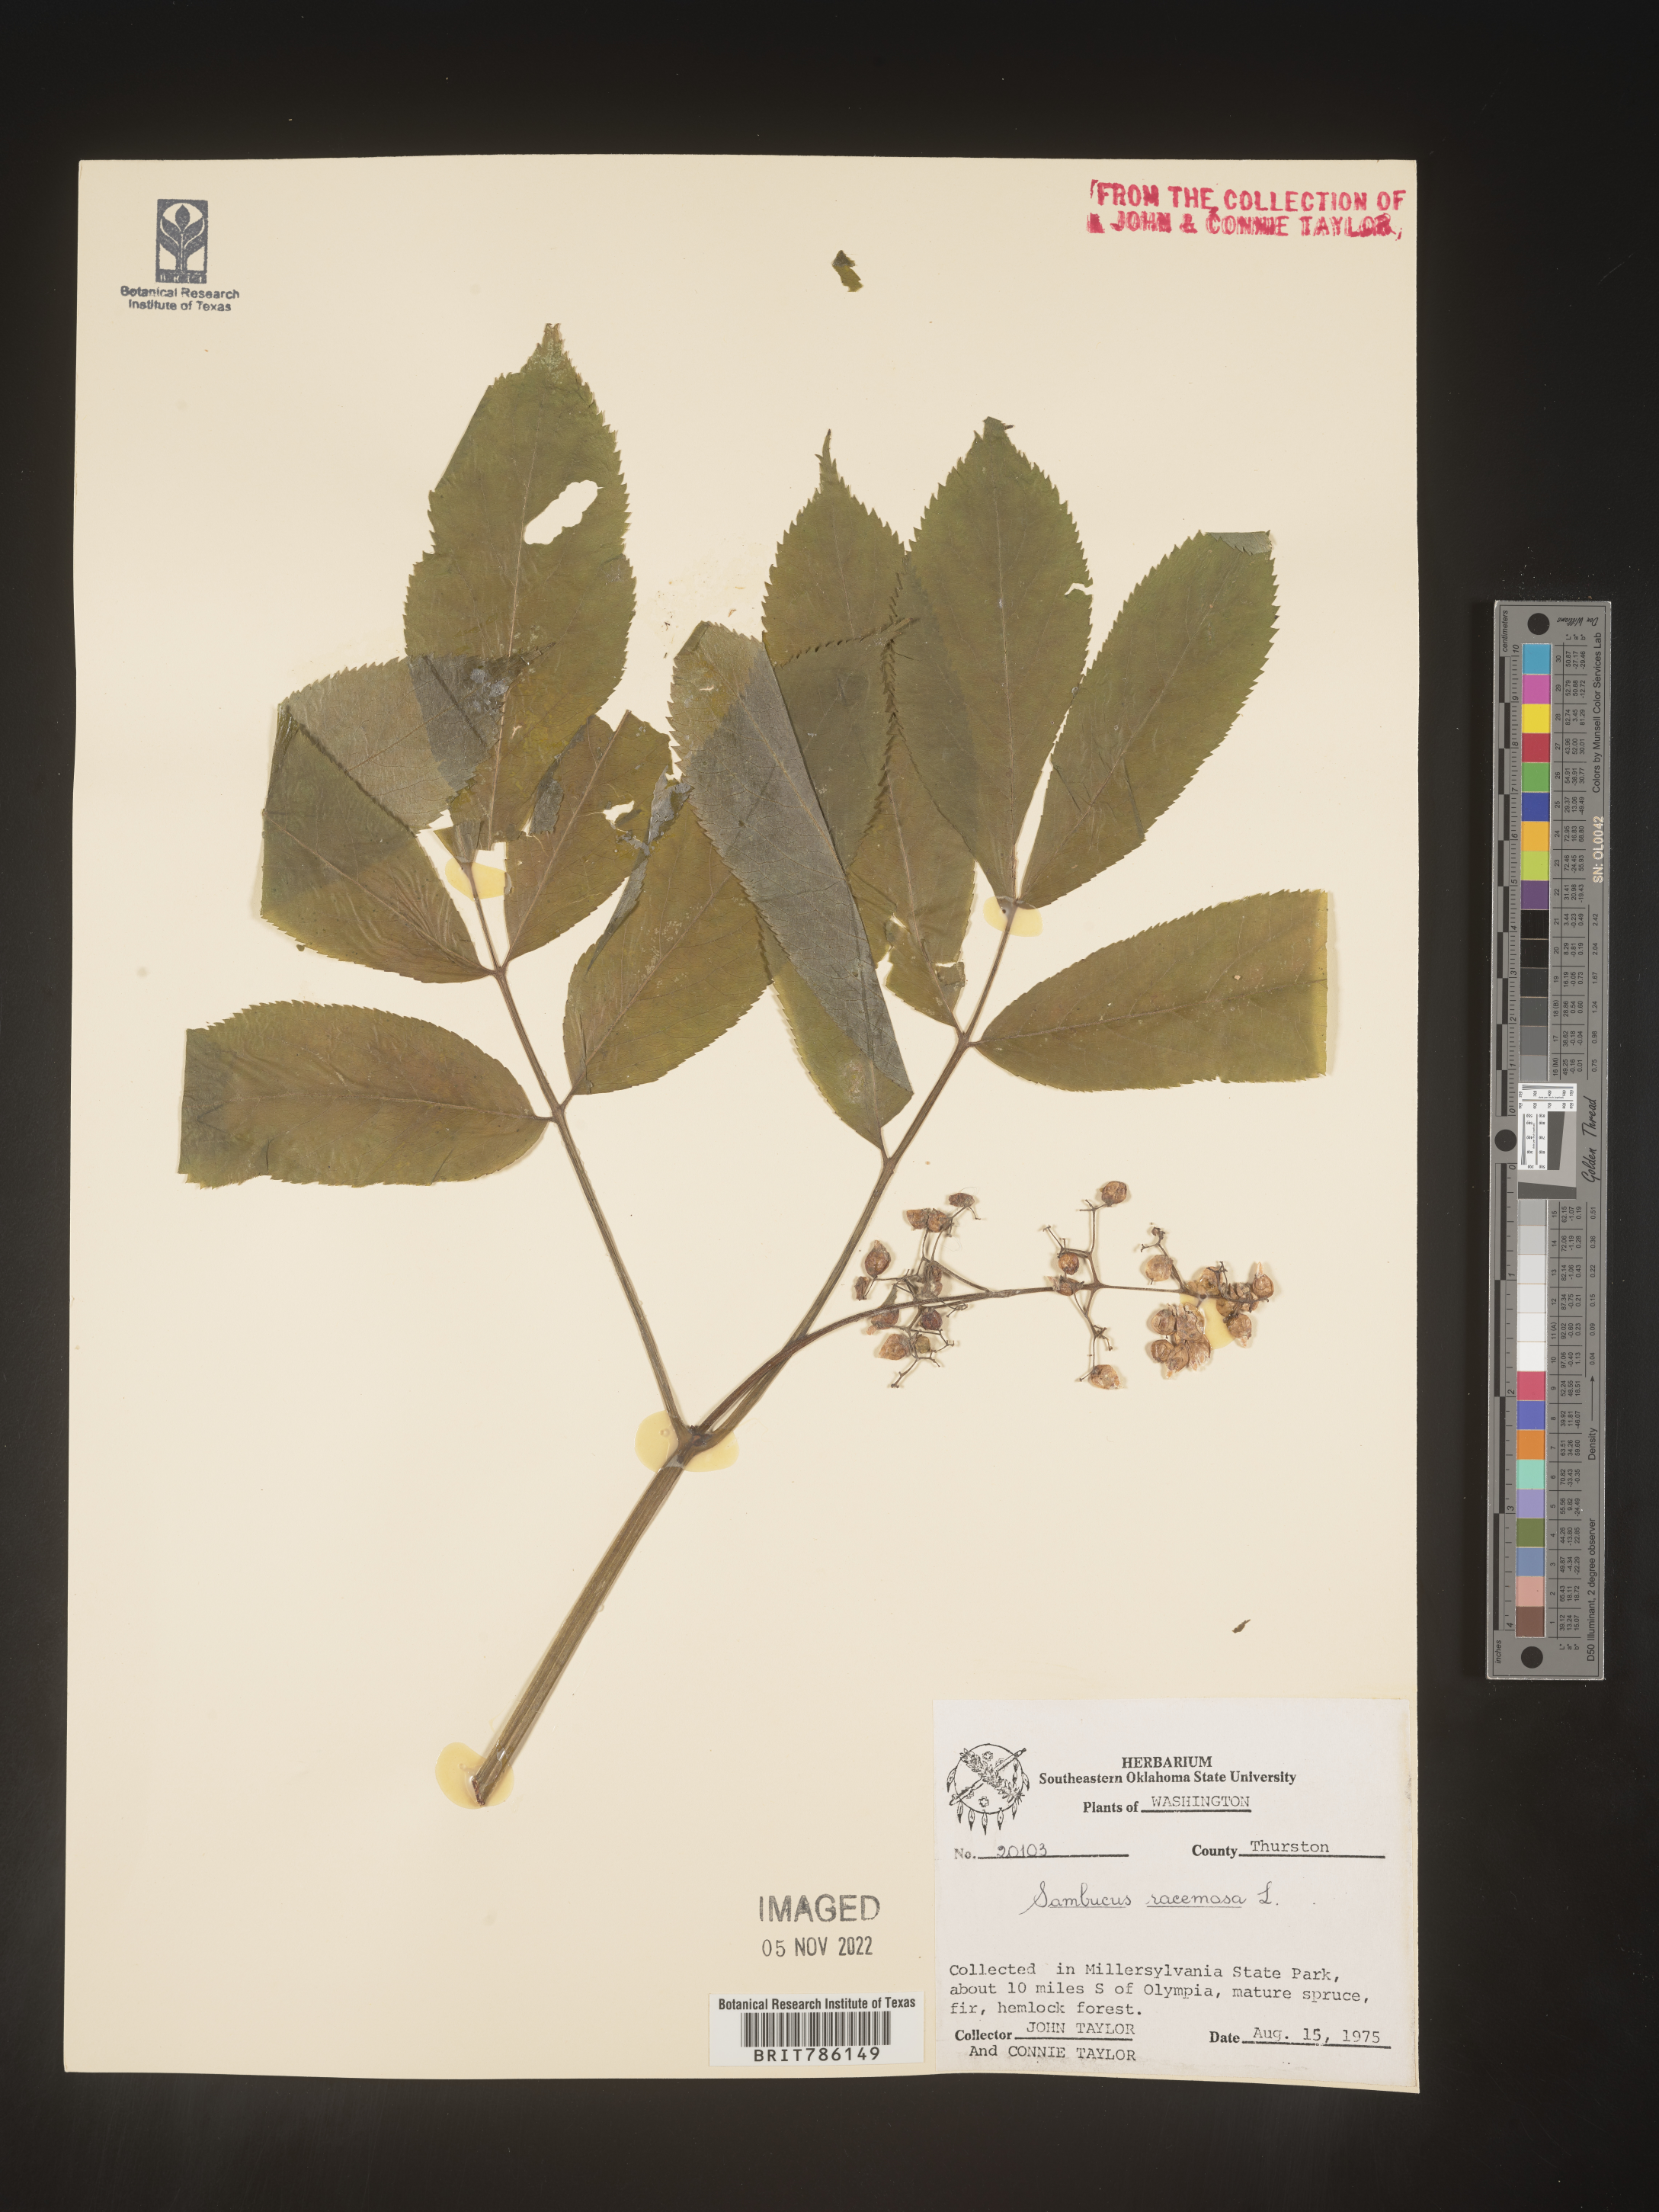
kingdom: Plantae
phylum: Tracheophyta
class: Magnoliopsida
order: Dipsacales
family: Viburnaceae
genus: Sambucus
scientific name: Sambucus
